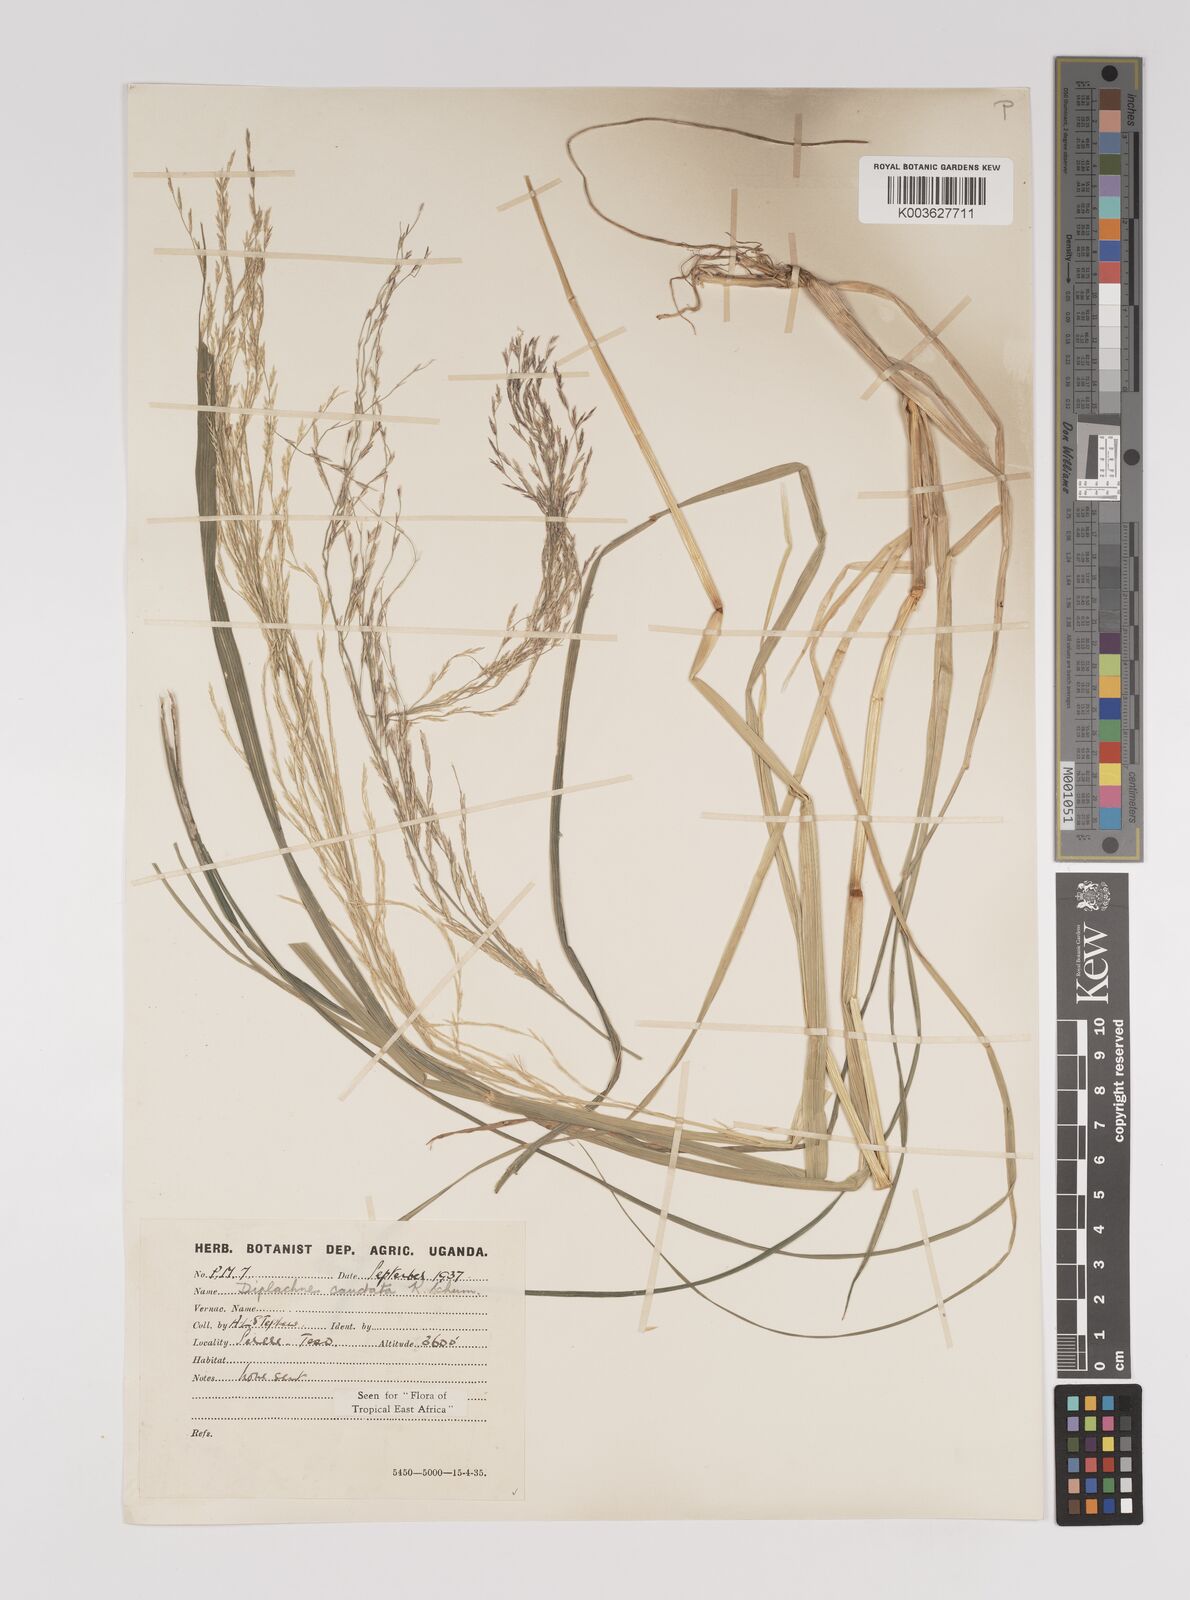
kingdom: Plantae
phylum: Tracheophyta
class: Liliopsida
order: Poales
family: Poaceae
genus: Leptochloa
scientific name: Leptochloa caudata
